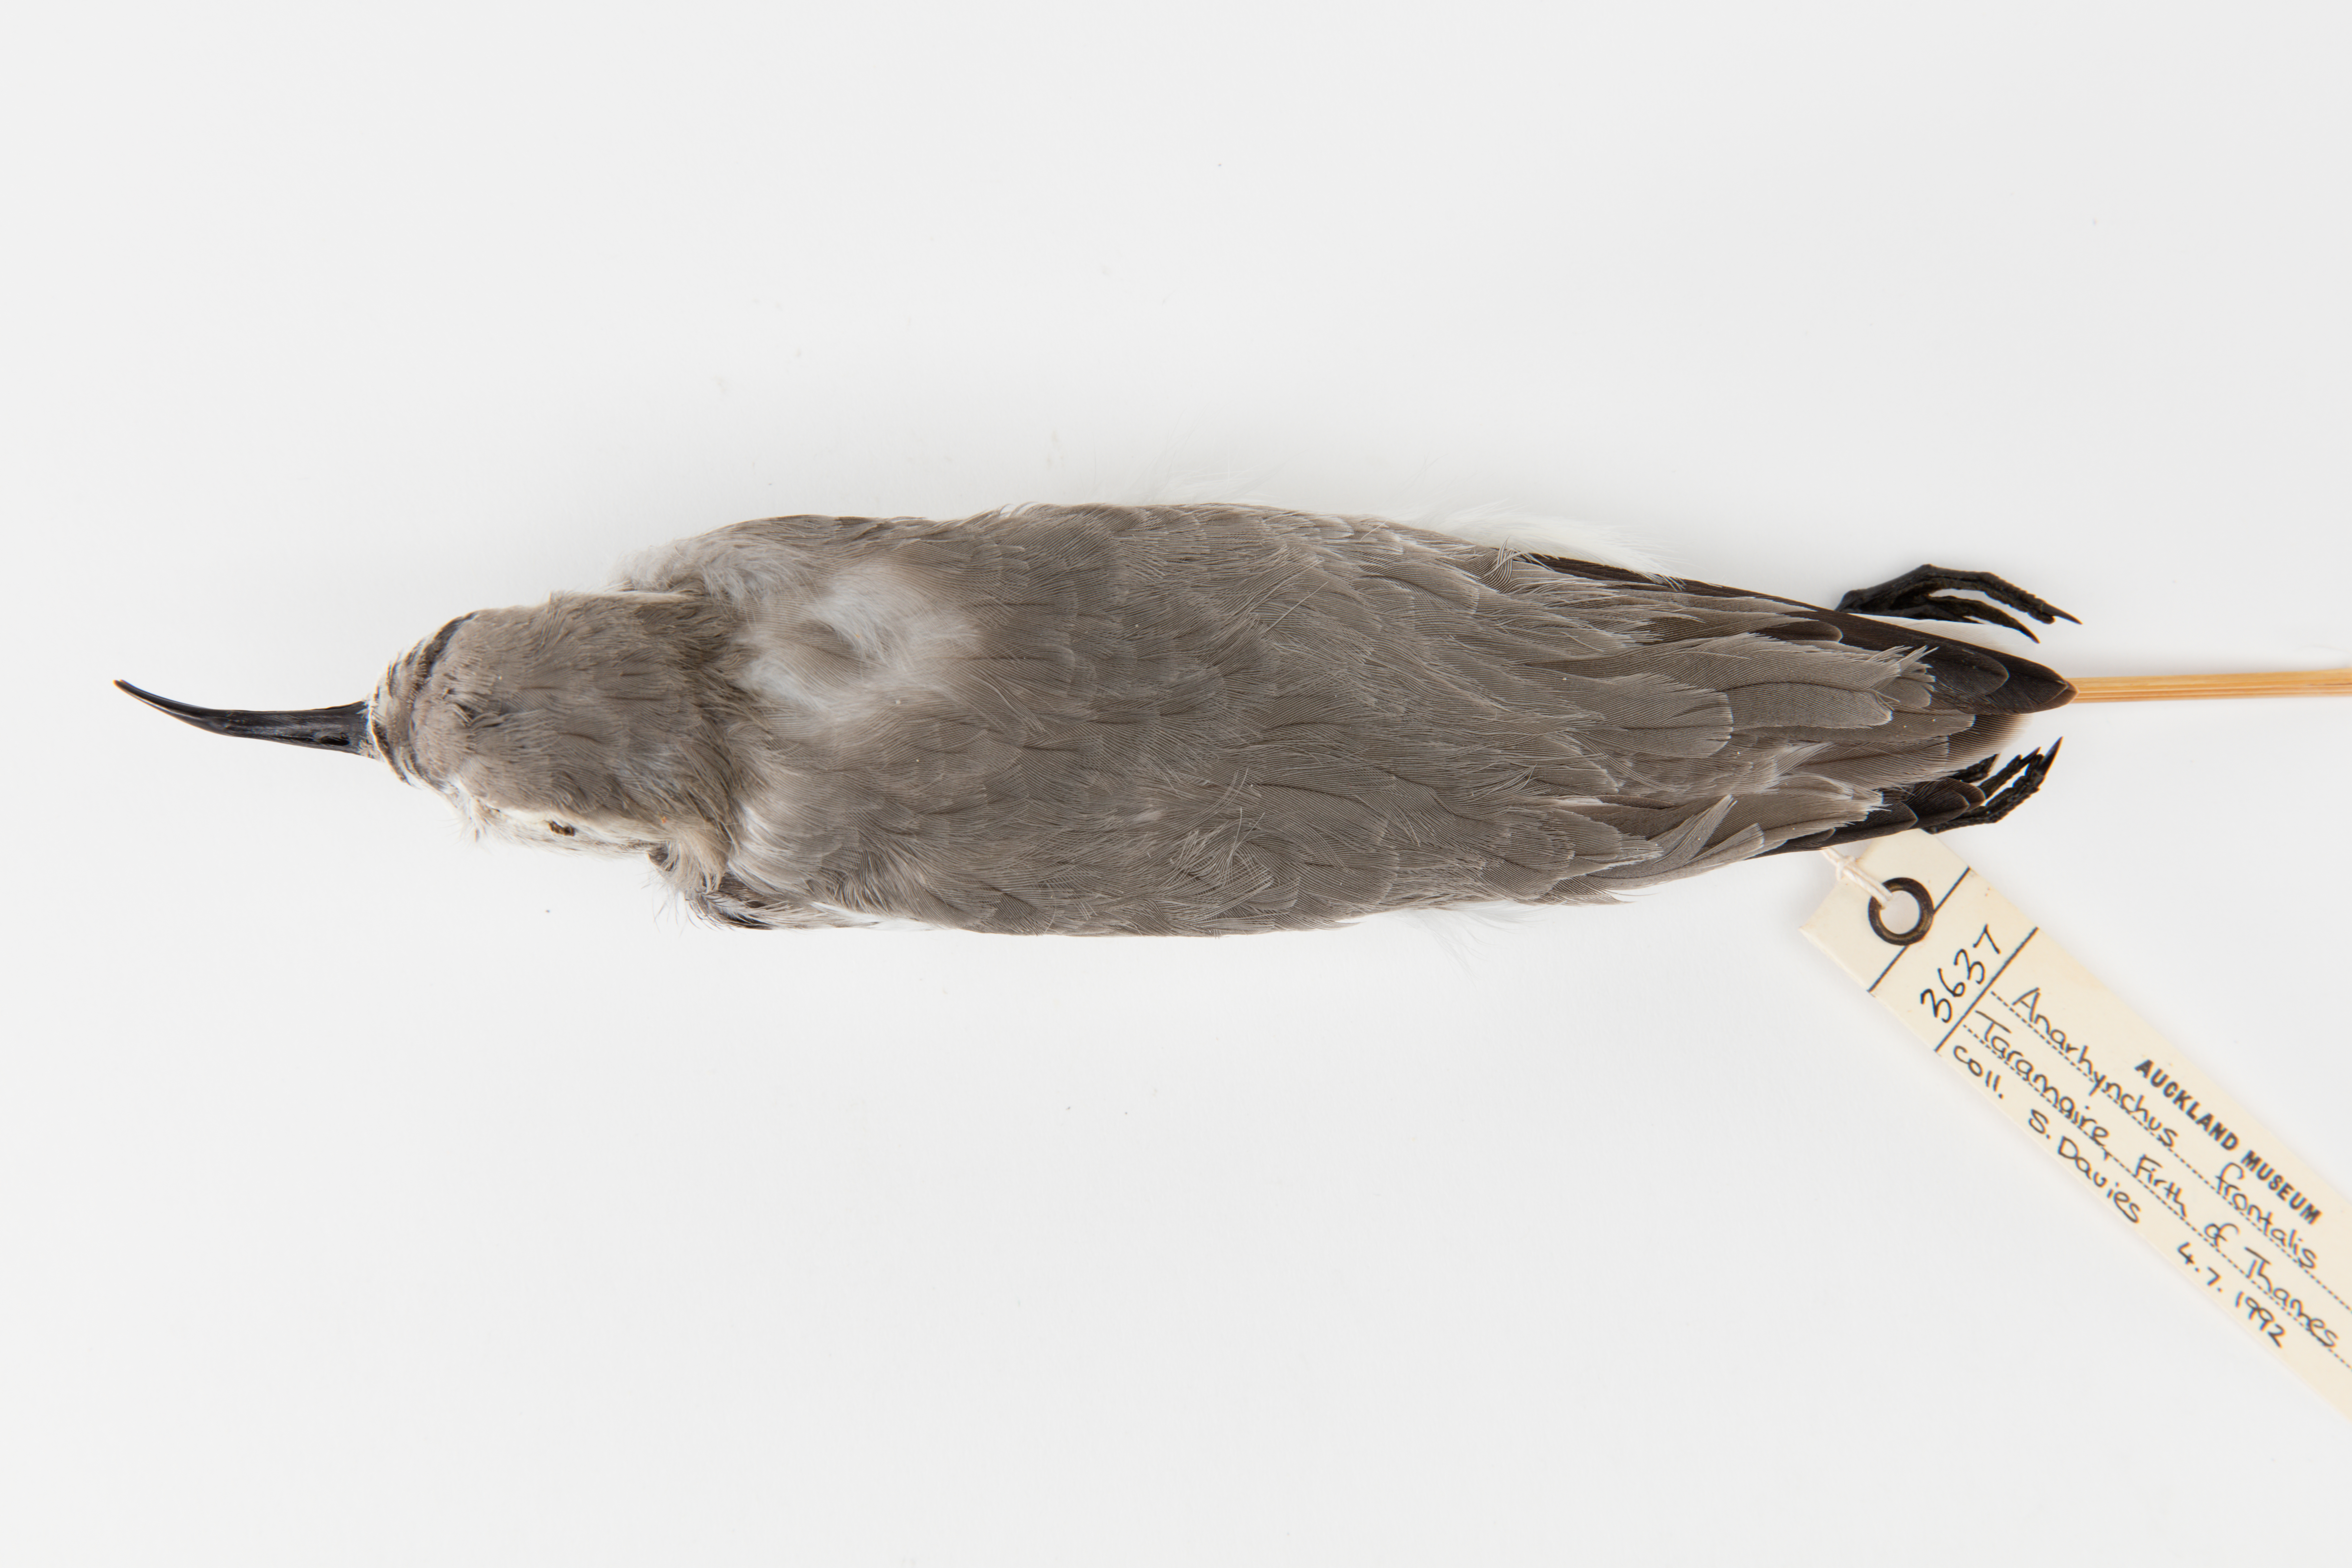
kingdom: Animalia
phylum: Chordata
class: Aves
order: Charadriiformes
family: Charadriidae
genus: Charadrius
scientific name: Charadrius frontalis
